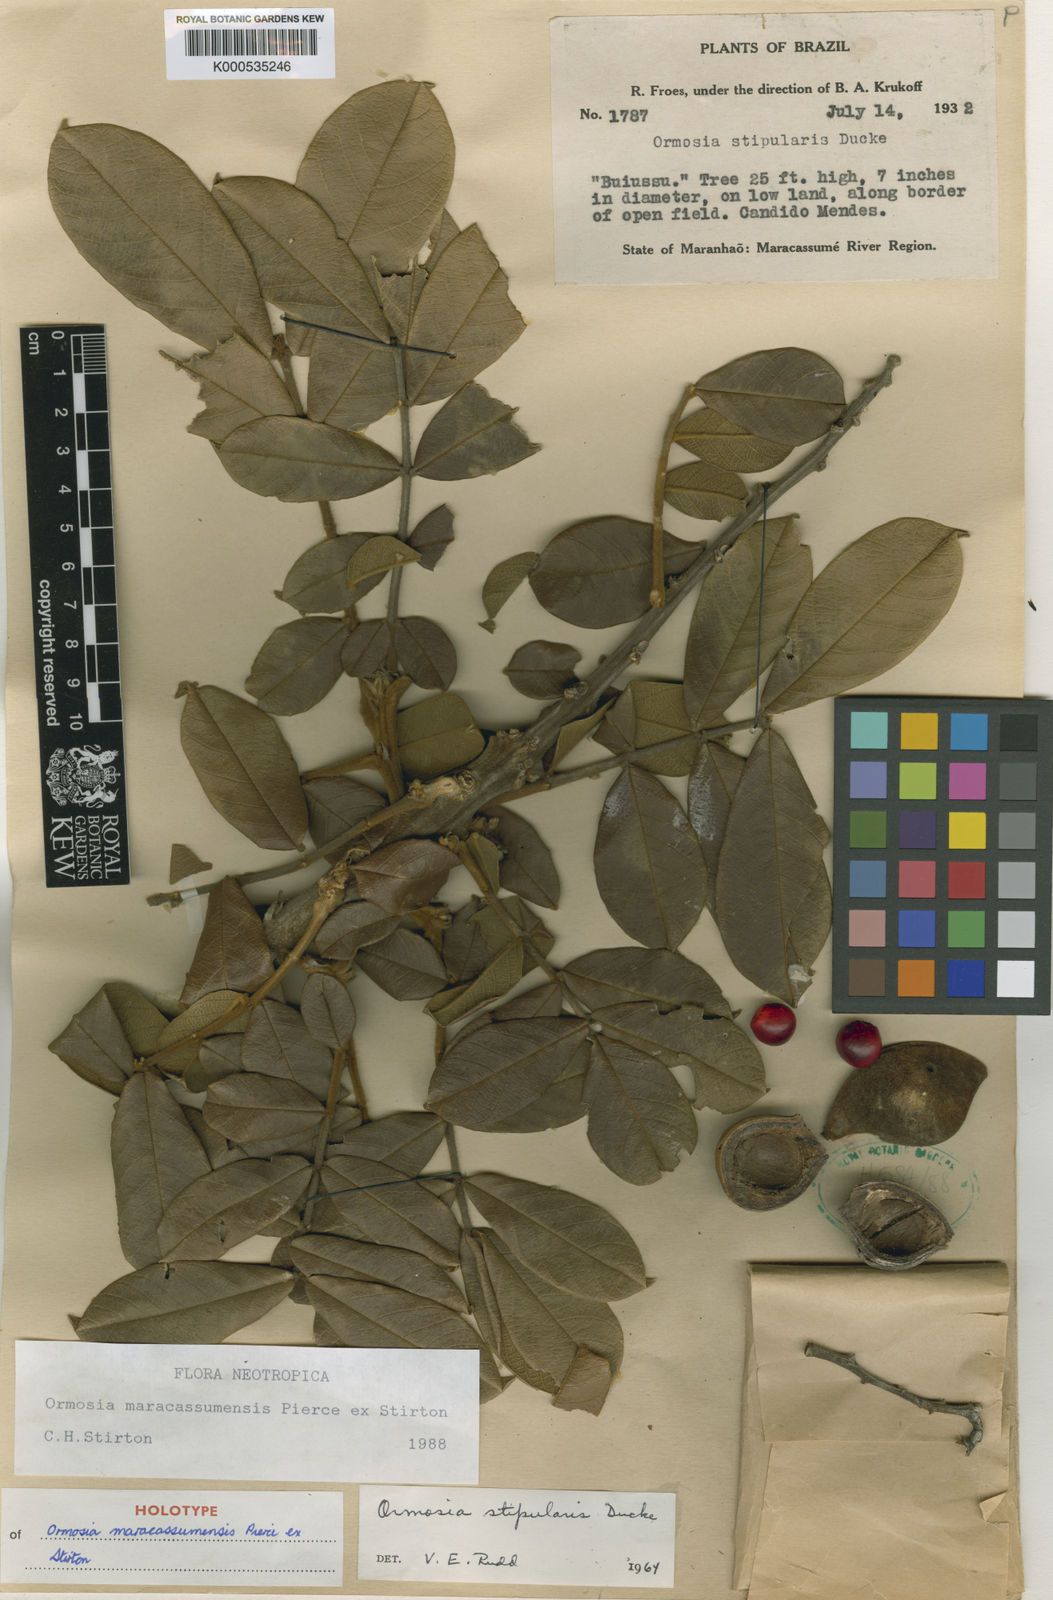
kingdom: Plantae
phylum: Tracheophyta
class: Magnoliopsida
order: Fabales
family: Fabaceae
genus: Ormosia
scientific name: Ormosia
